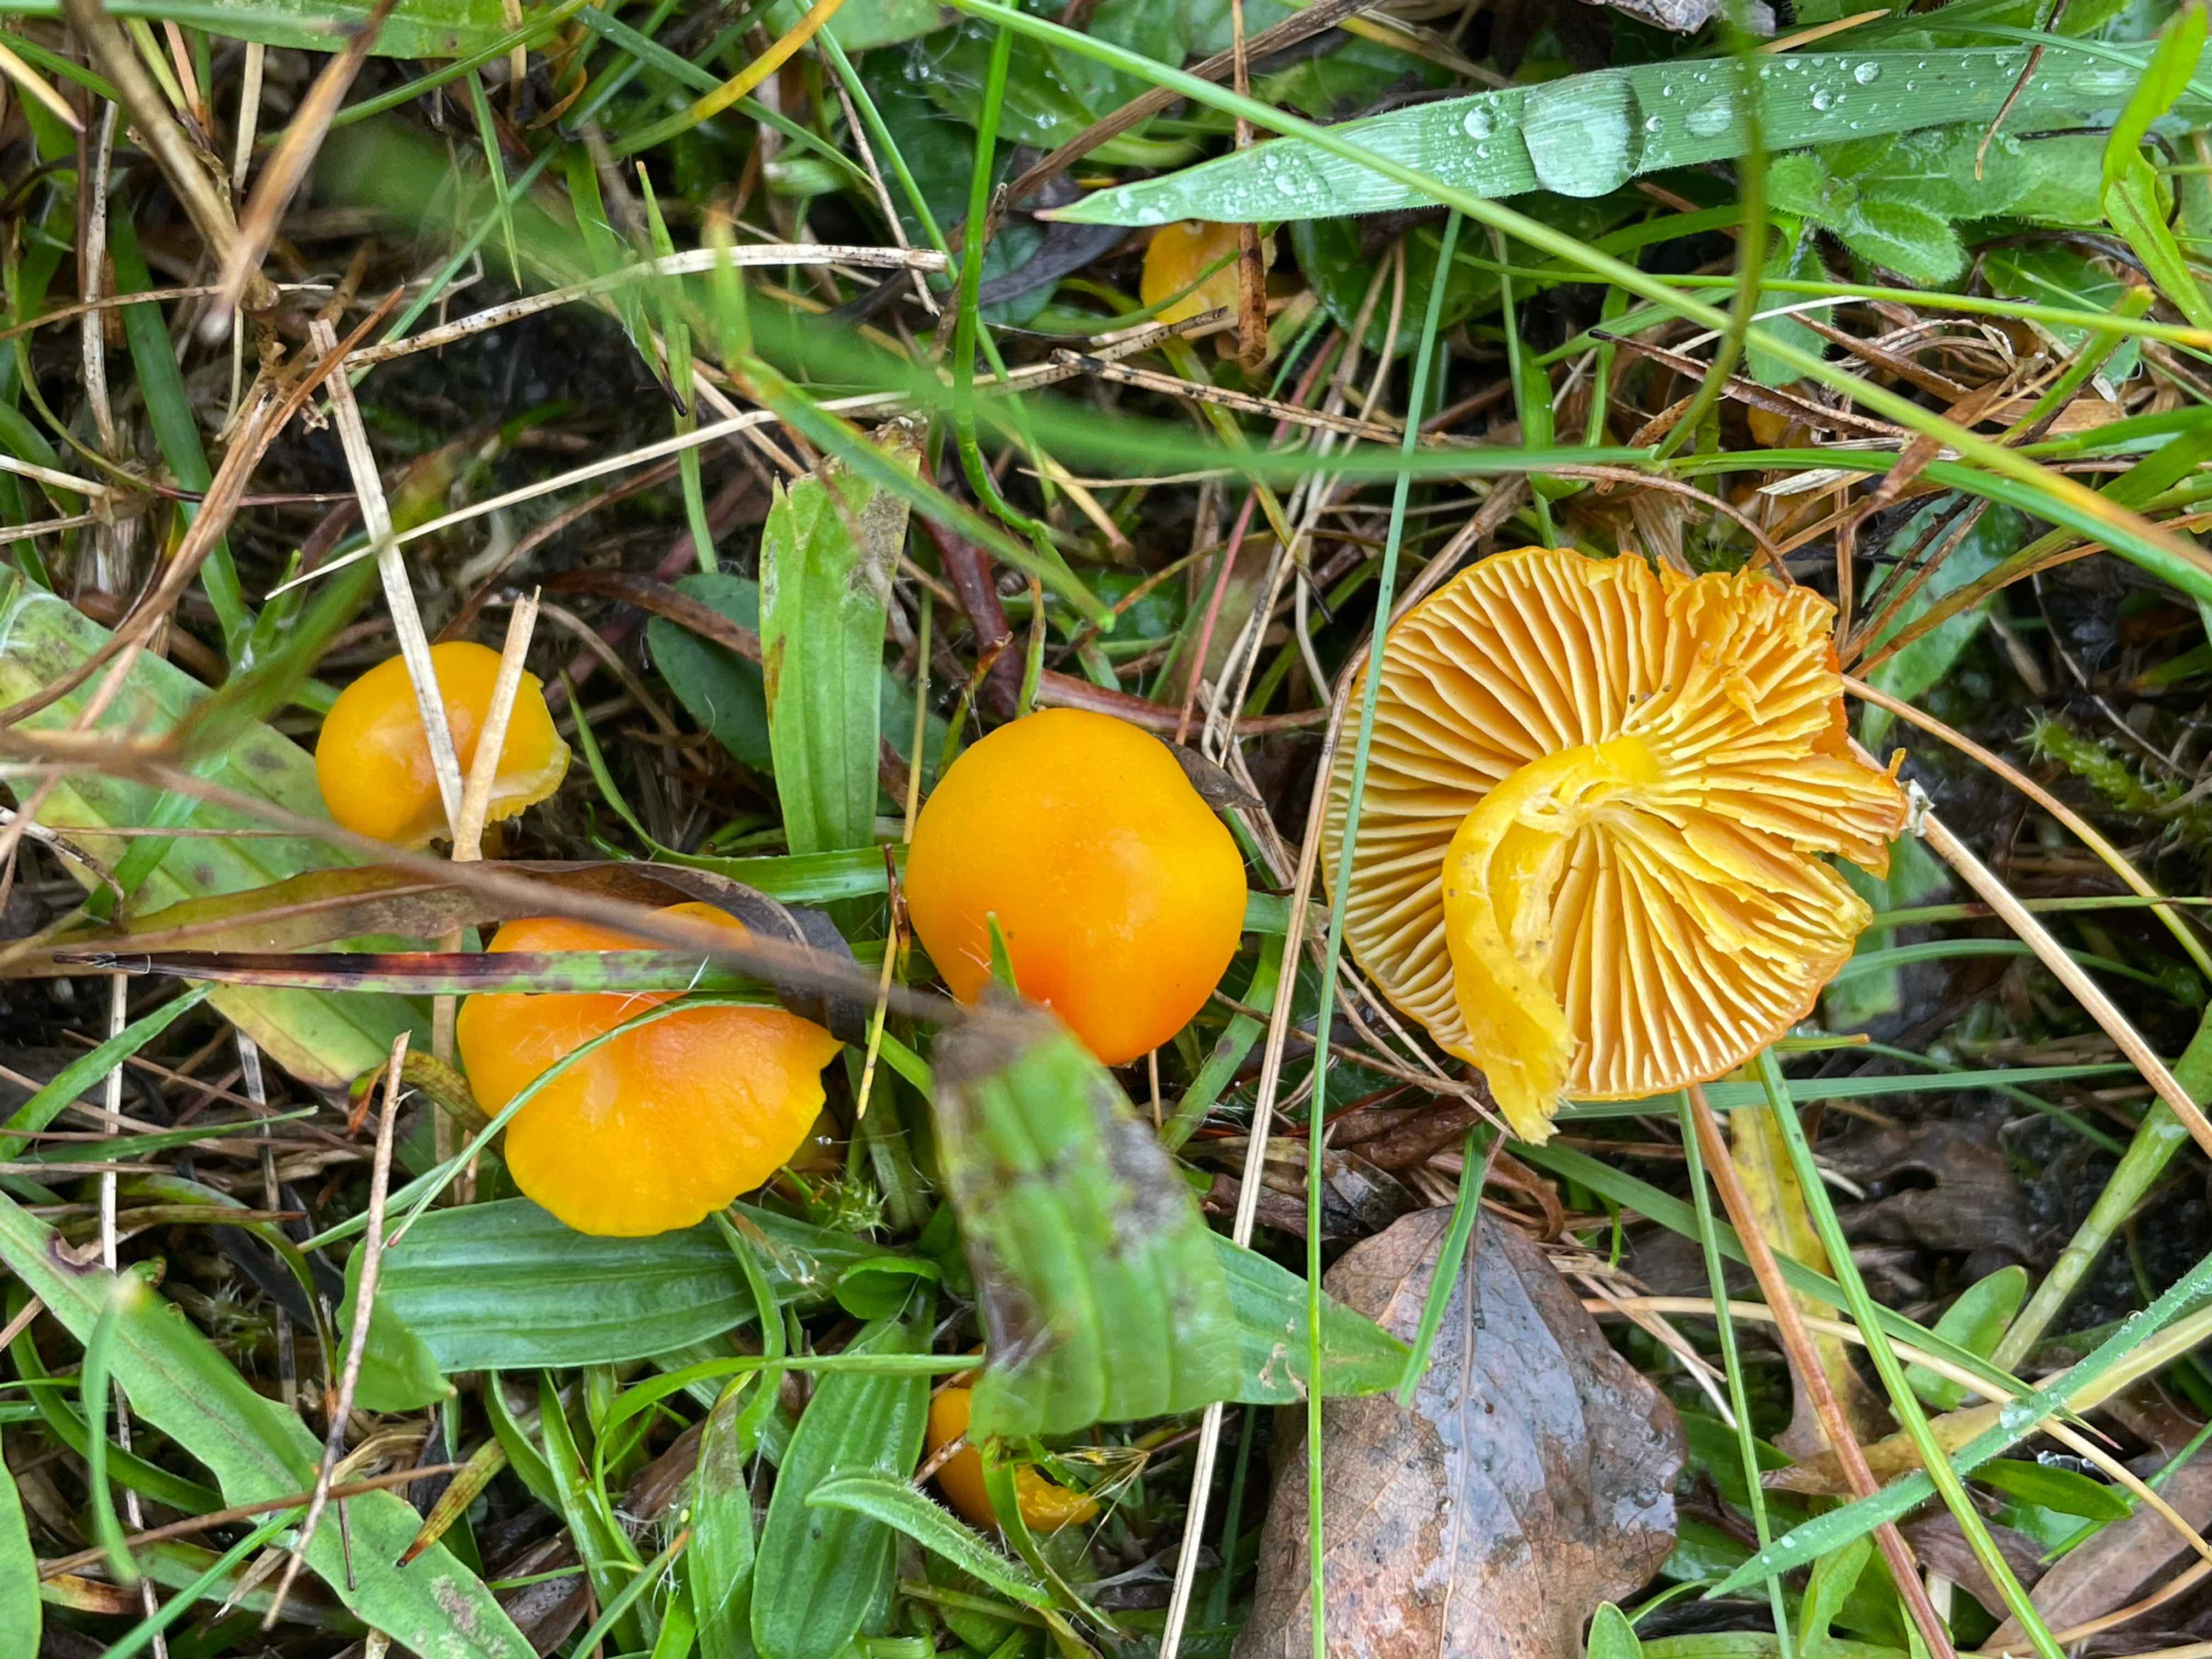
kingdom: Fungi
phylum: Basidiomycota
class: Agaricomycetes
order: Agaricales
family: Hygrophoraceae
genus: Hygrocybe
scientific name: Hygrocybe ceracea
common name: voksgul vokshat
